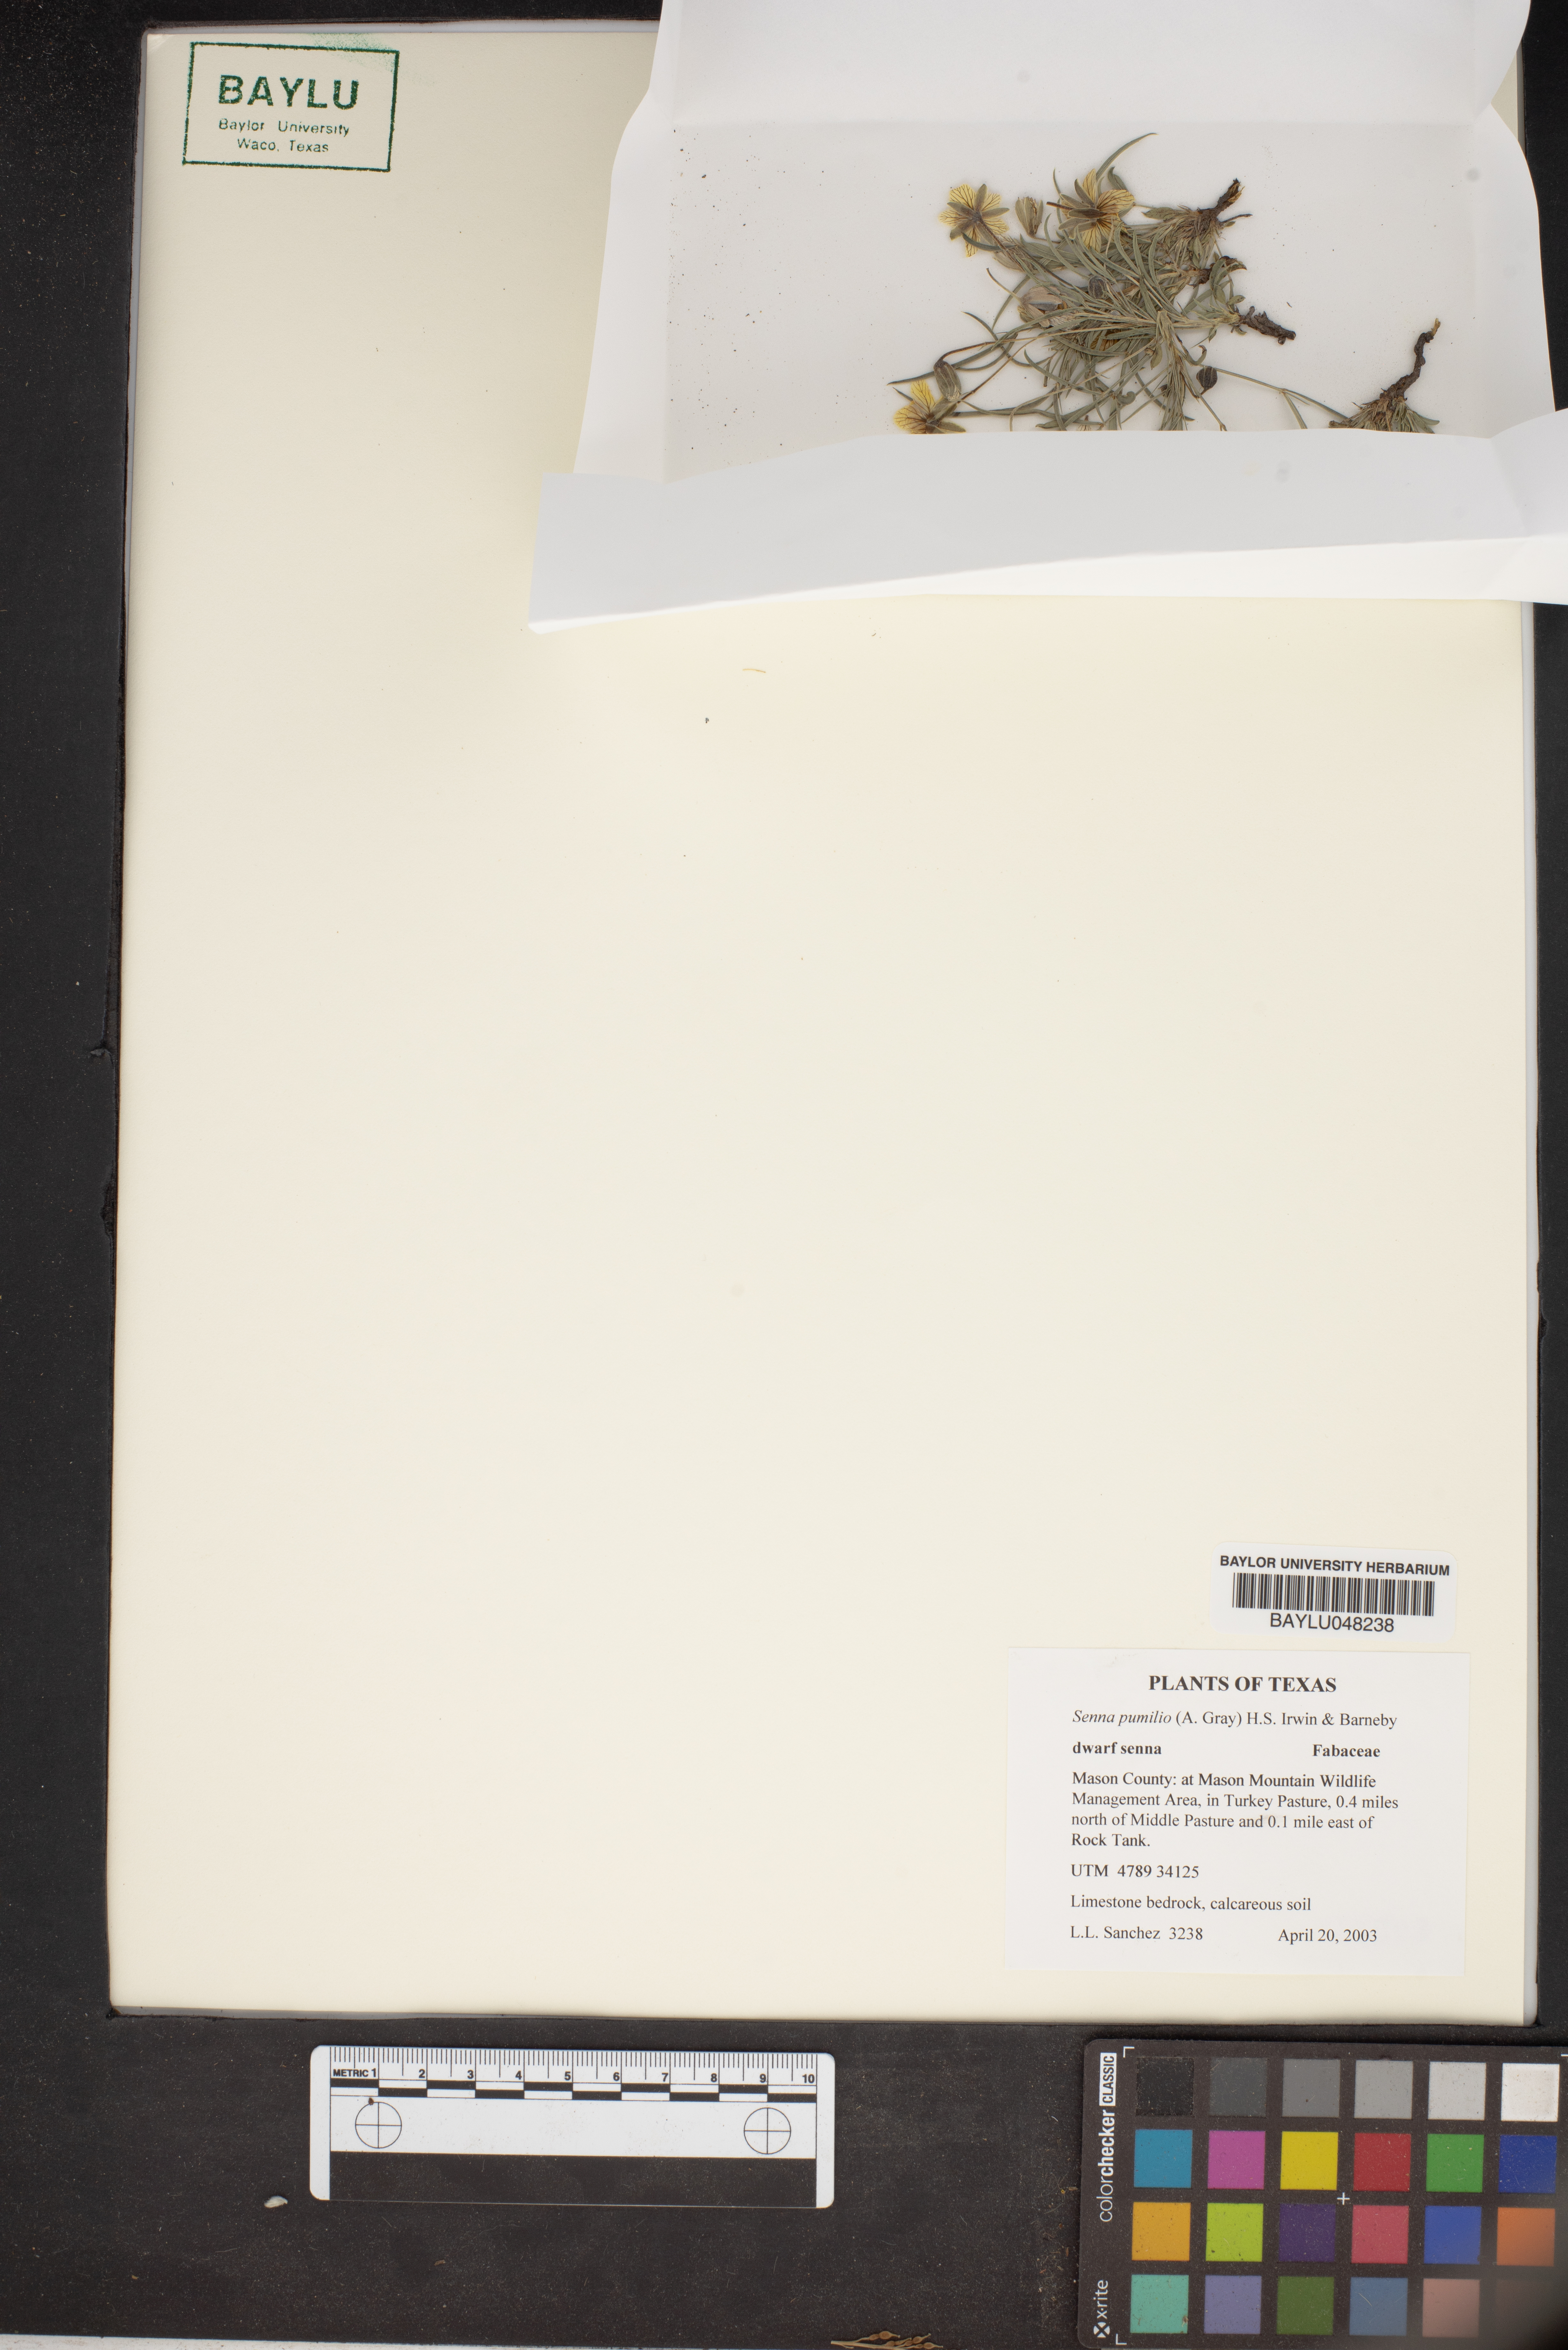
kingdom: Plantae
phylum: Tracheophyta
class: Magnoliopsida
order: Fabales
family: Fabaceae
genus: Senna
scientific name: Senna pumilio
